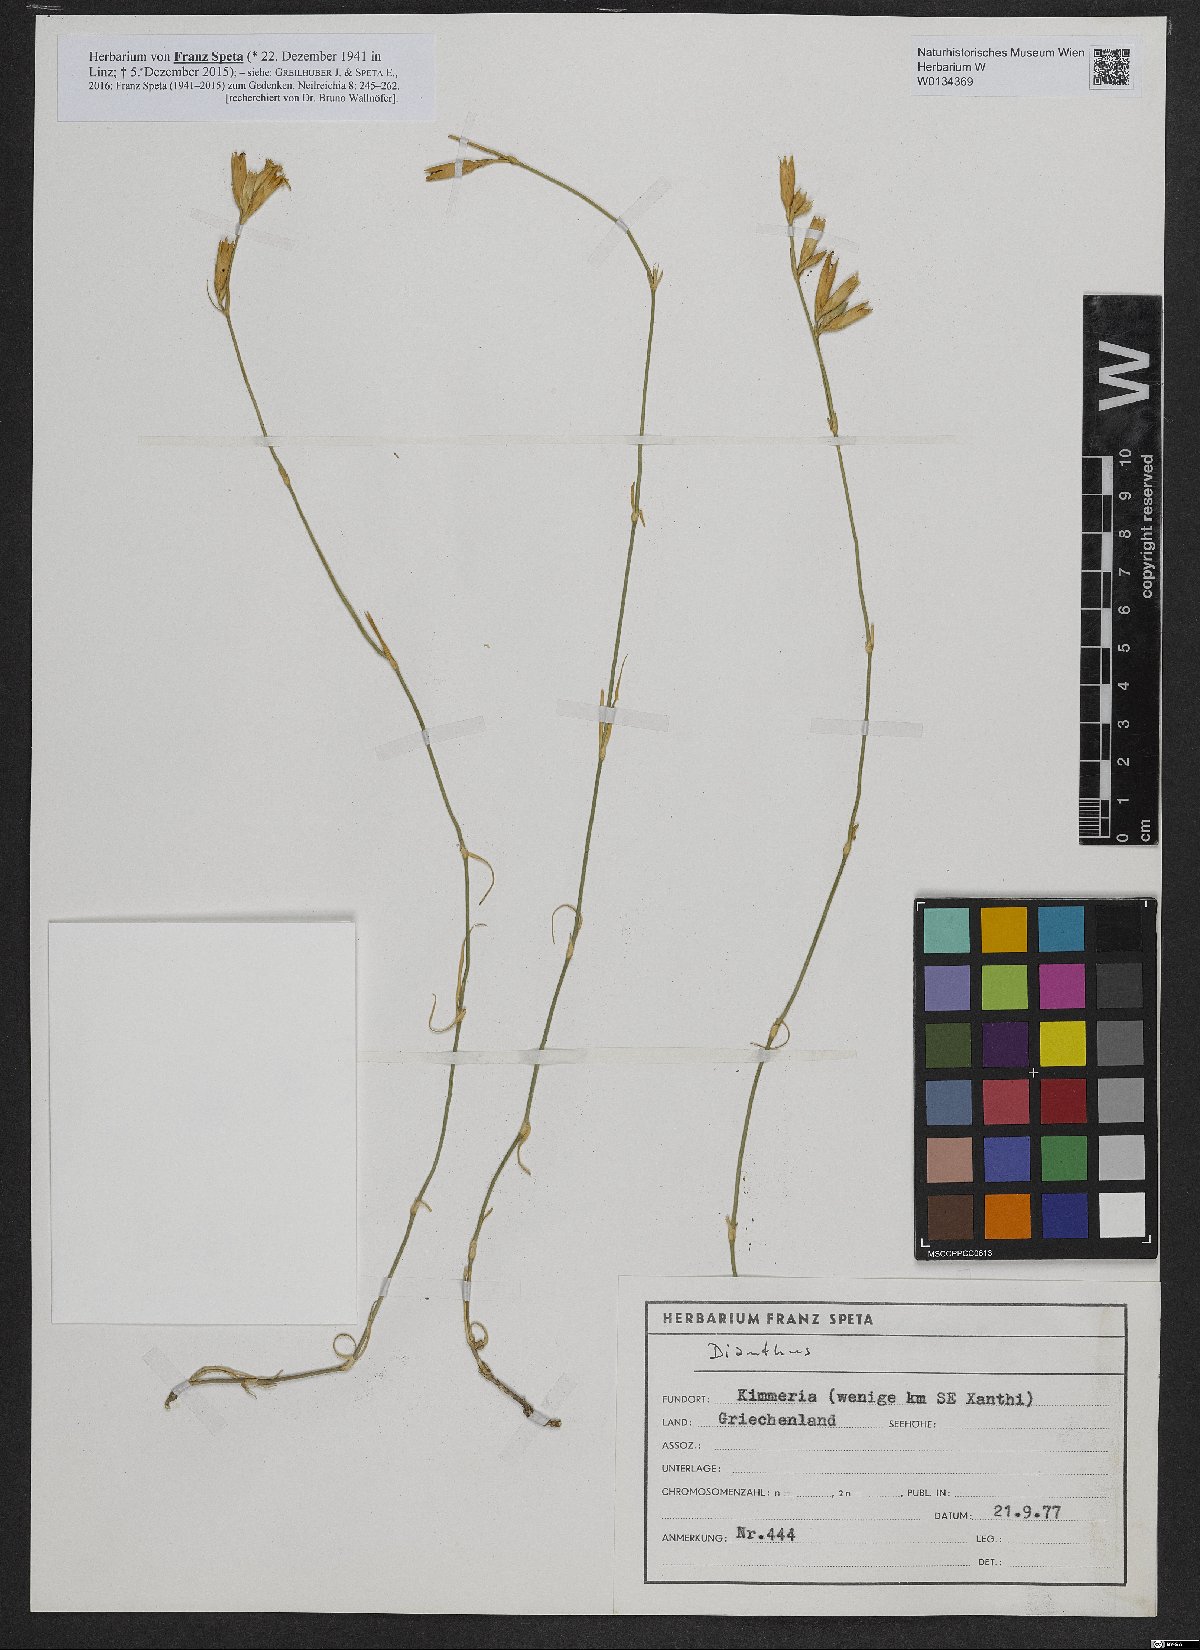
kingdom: Plantae
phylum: Tracheophyta
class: Magnoliopsida
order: Caryophyllales
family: Caryophyllaceae
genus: Dianthus
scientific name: Dianthus
